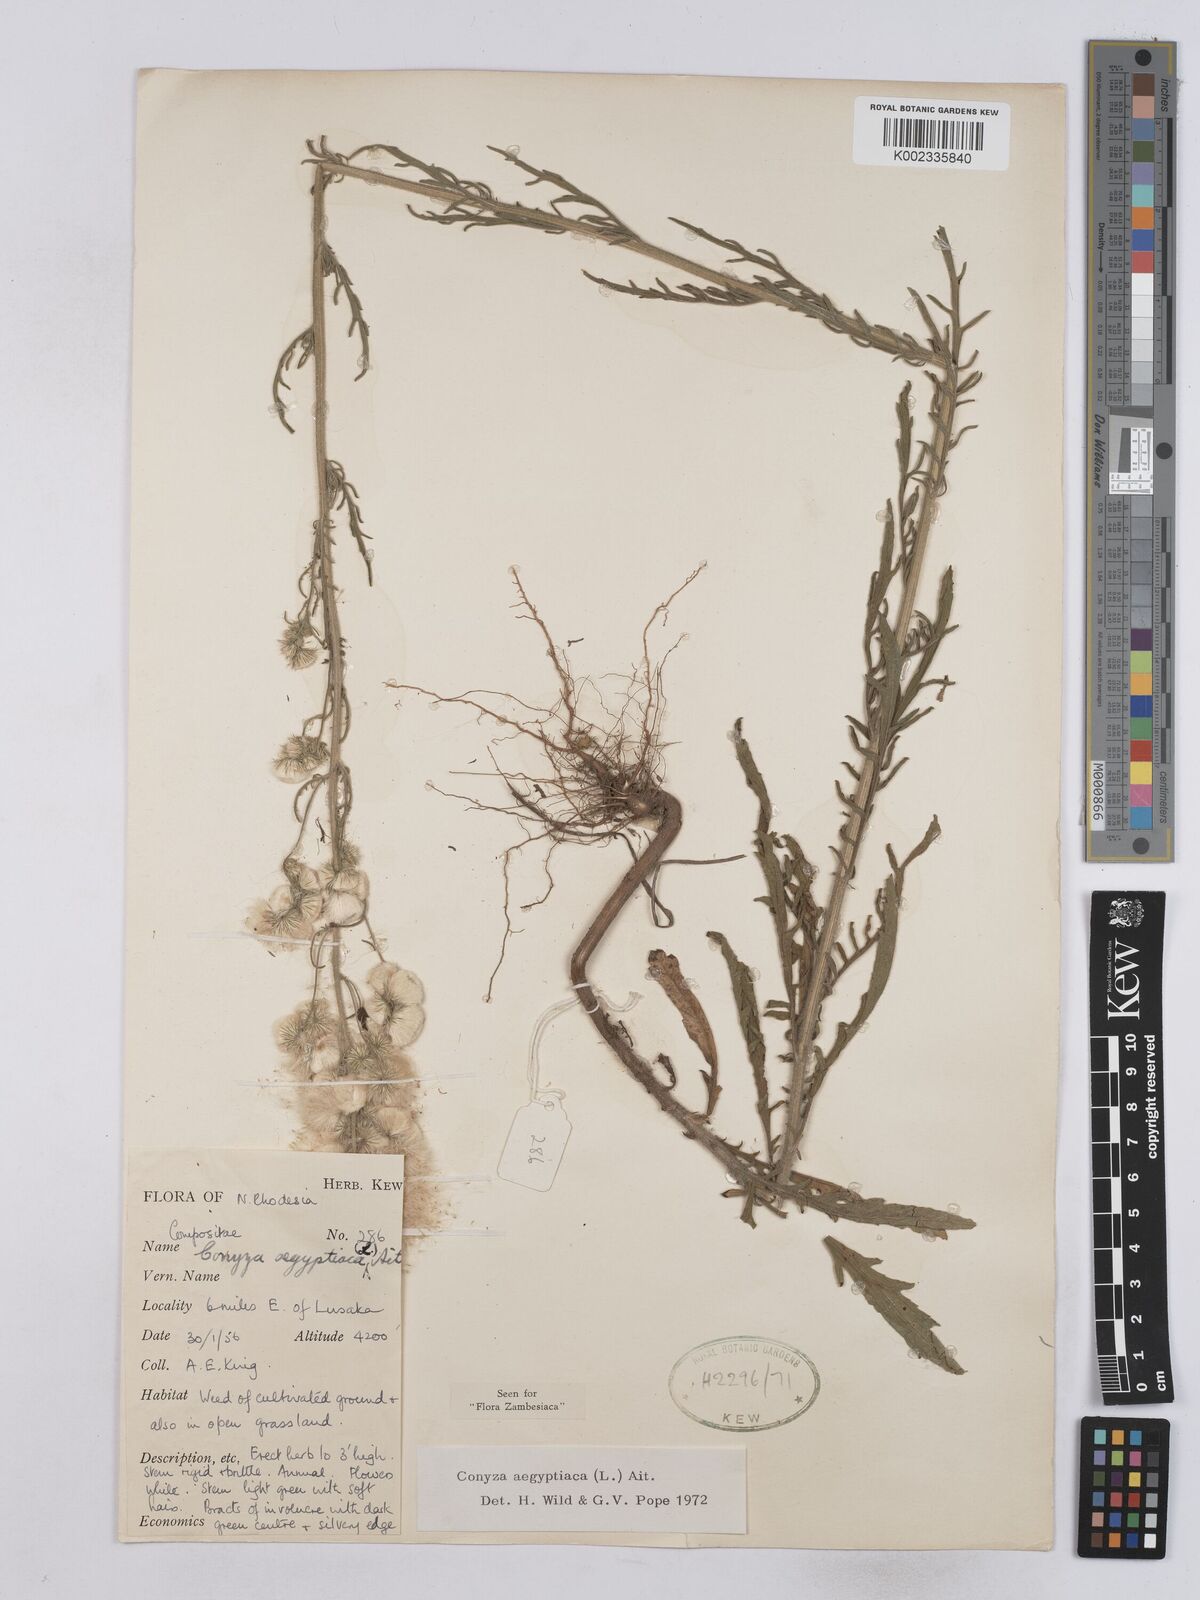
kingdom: Plantae
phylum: Tracheophyta
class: Magnoliopsida
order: Asterales
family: Asteraceae
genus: Nidorella
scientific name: Nidorella aegyptiaca
